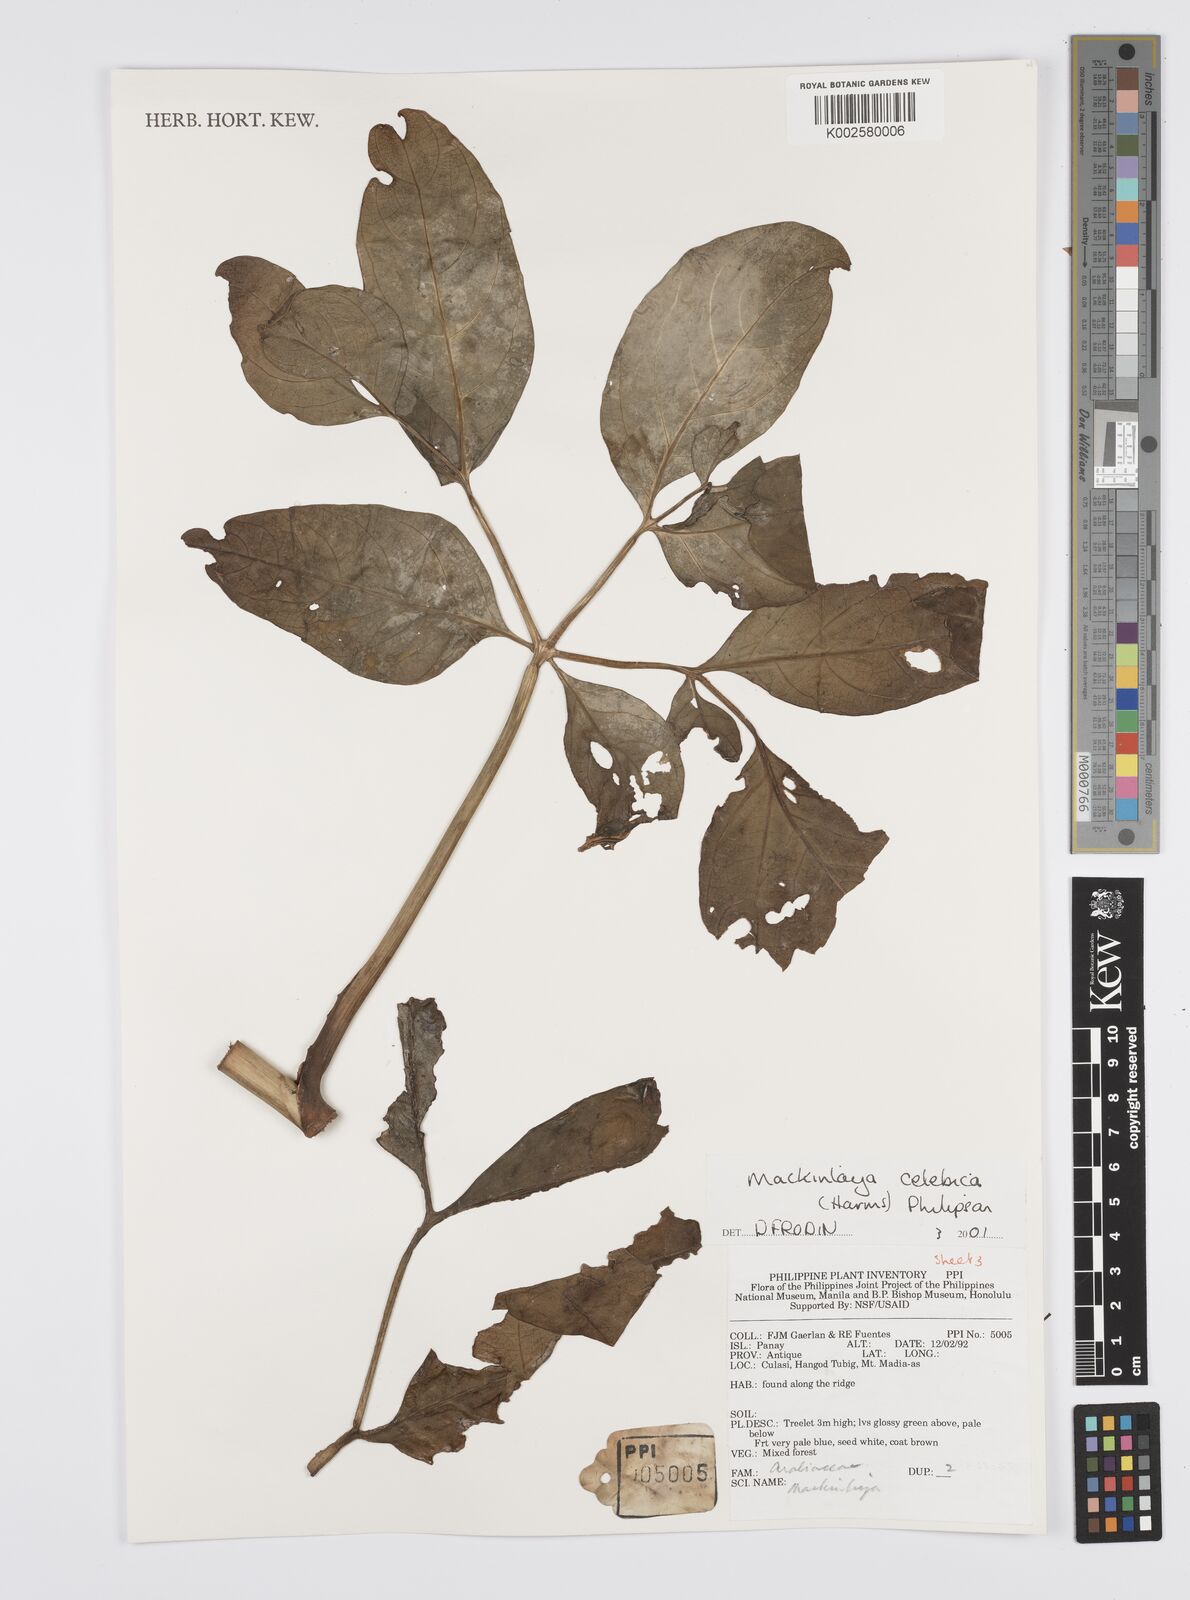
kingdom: Plantae
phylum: Tracheophyta
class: Magnoliopsida
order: Apiales
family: Apiaceae
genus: Mackinlaya
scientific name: Mackinlaya celebica
